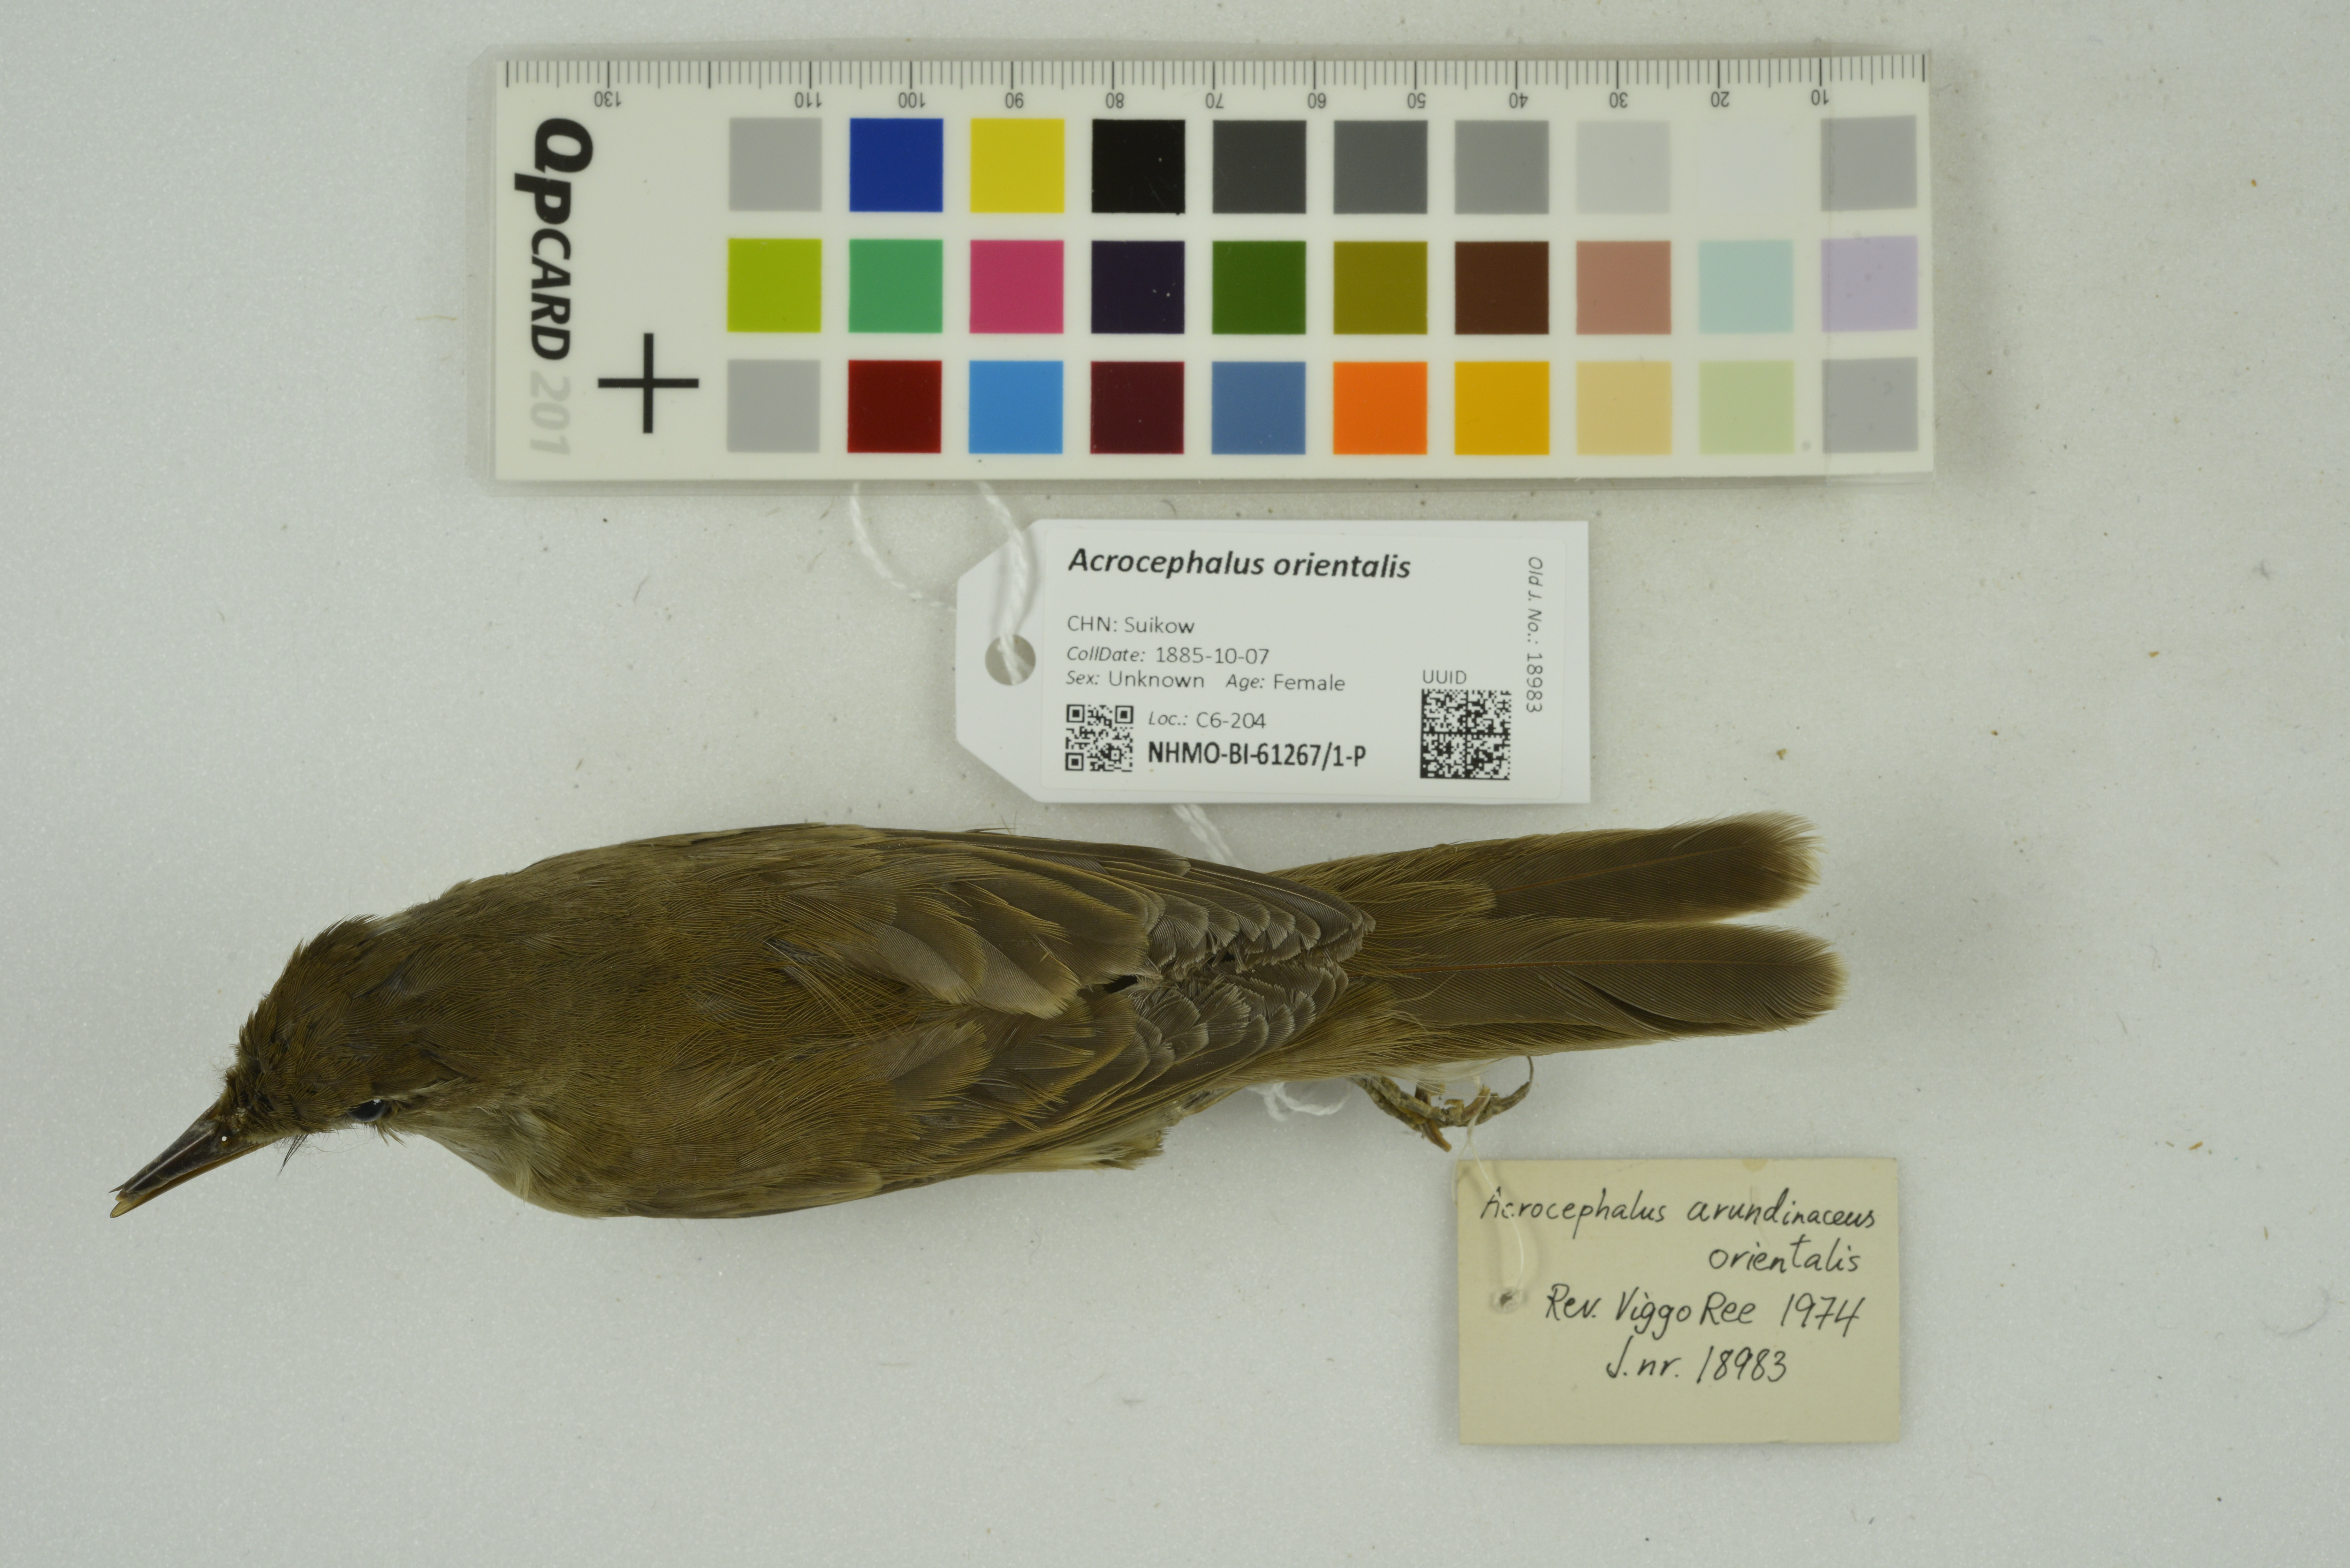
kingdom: Animalia
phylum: Chordata
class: Aves
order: Passeriformes
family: Acrocephalidae
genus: Acrocephalus
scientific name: Acrocephalus orientalis
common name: Oriental reed warbler
